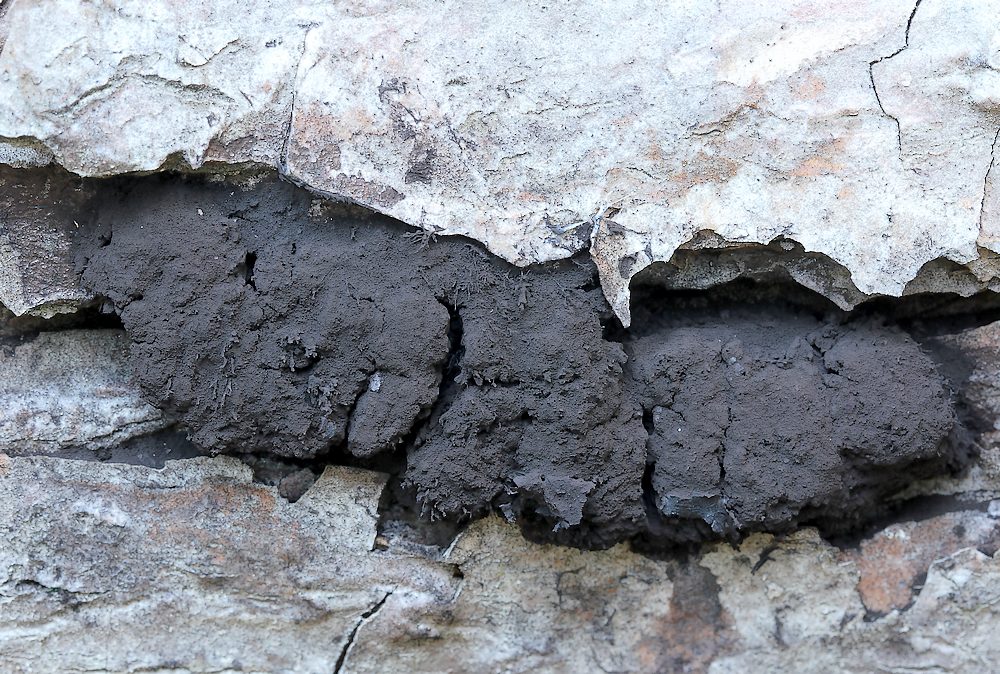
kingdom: Protozoa
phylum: Mycetozoa
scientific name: Mycetozoa
